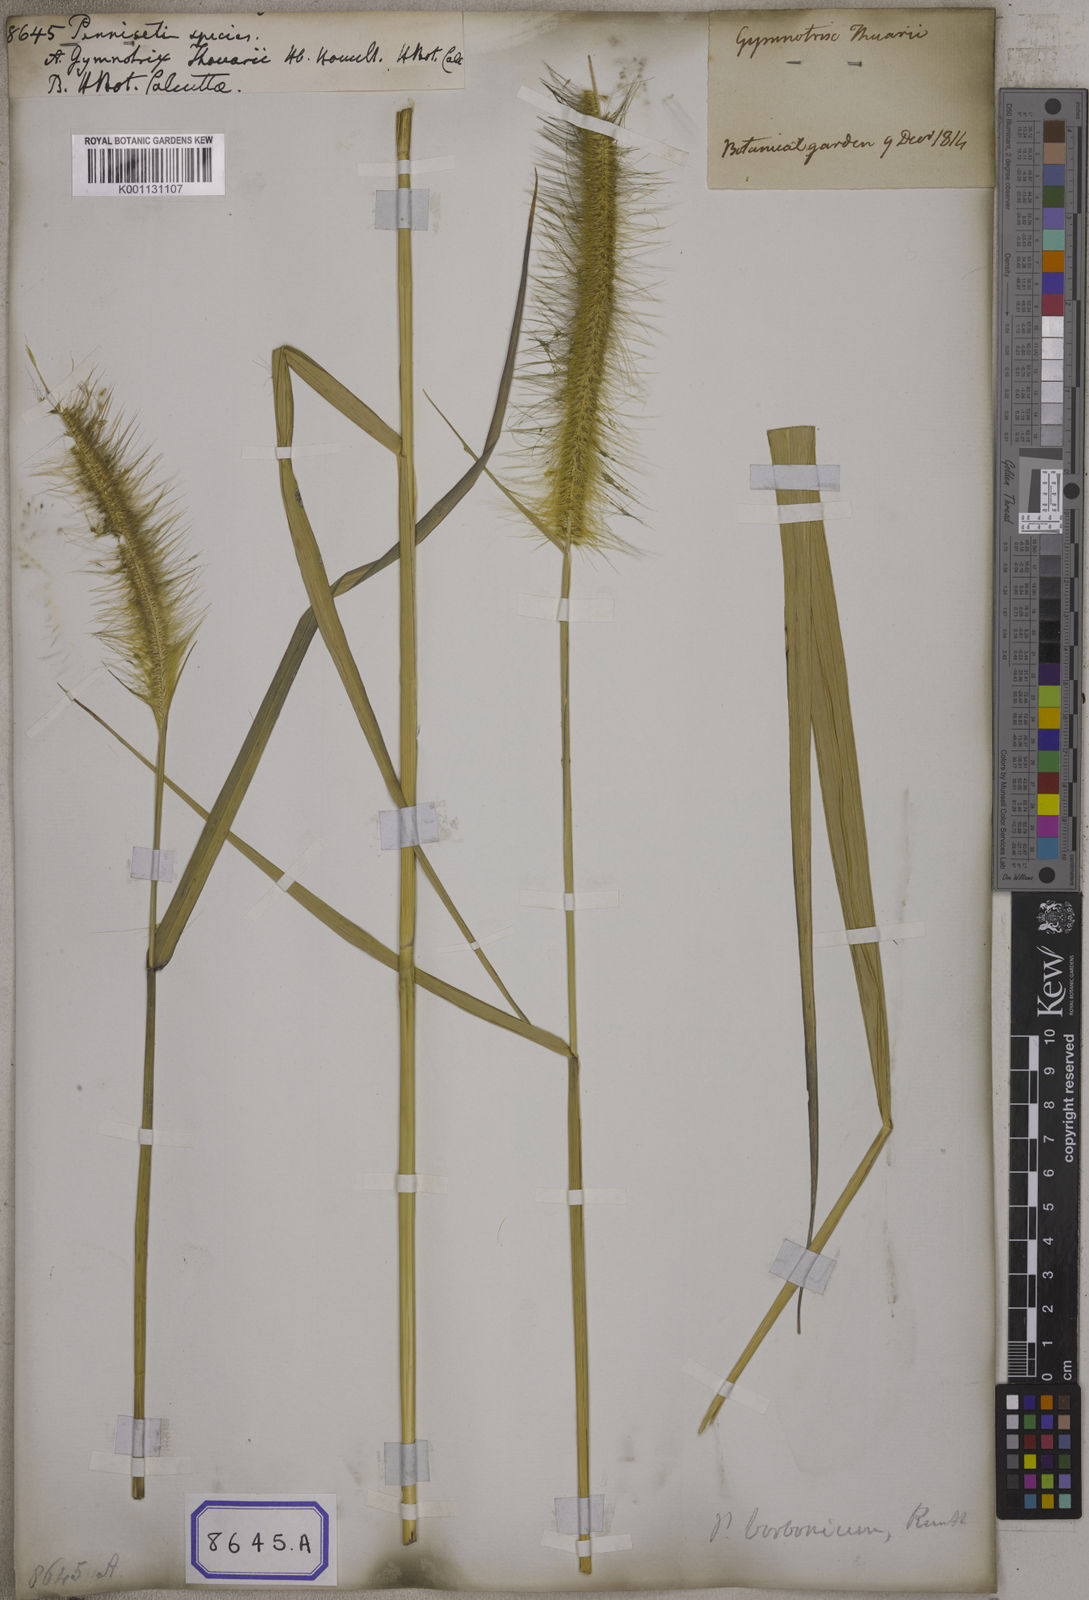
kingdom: Plantae
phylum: Tracheophyta
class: Liliopsida
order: Poales
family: Poaceae
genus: Cenchrus
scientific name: Cenchrus Pennisetum spec
